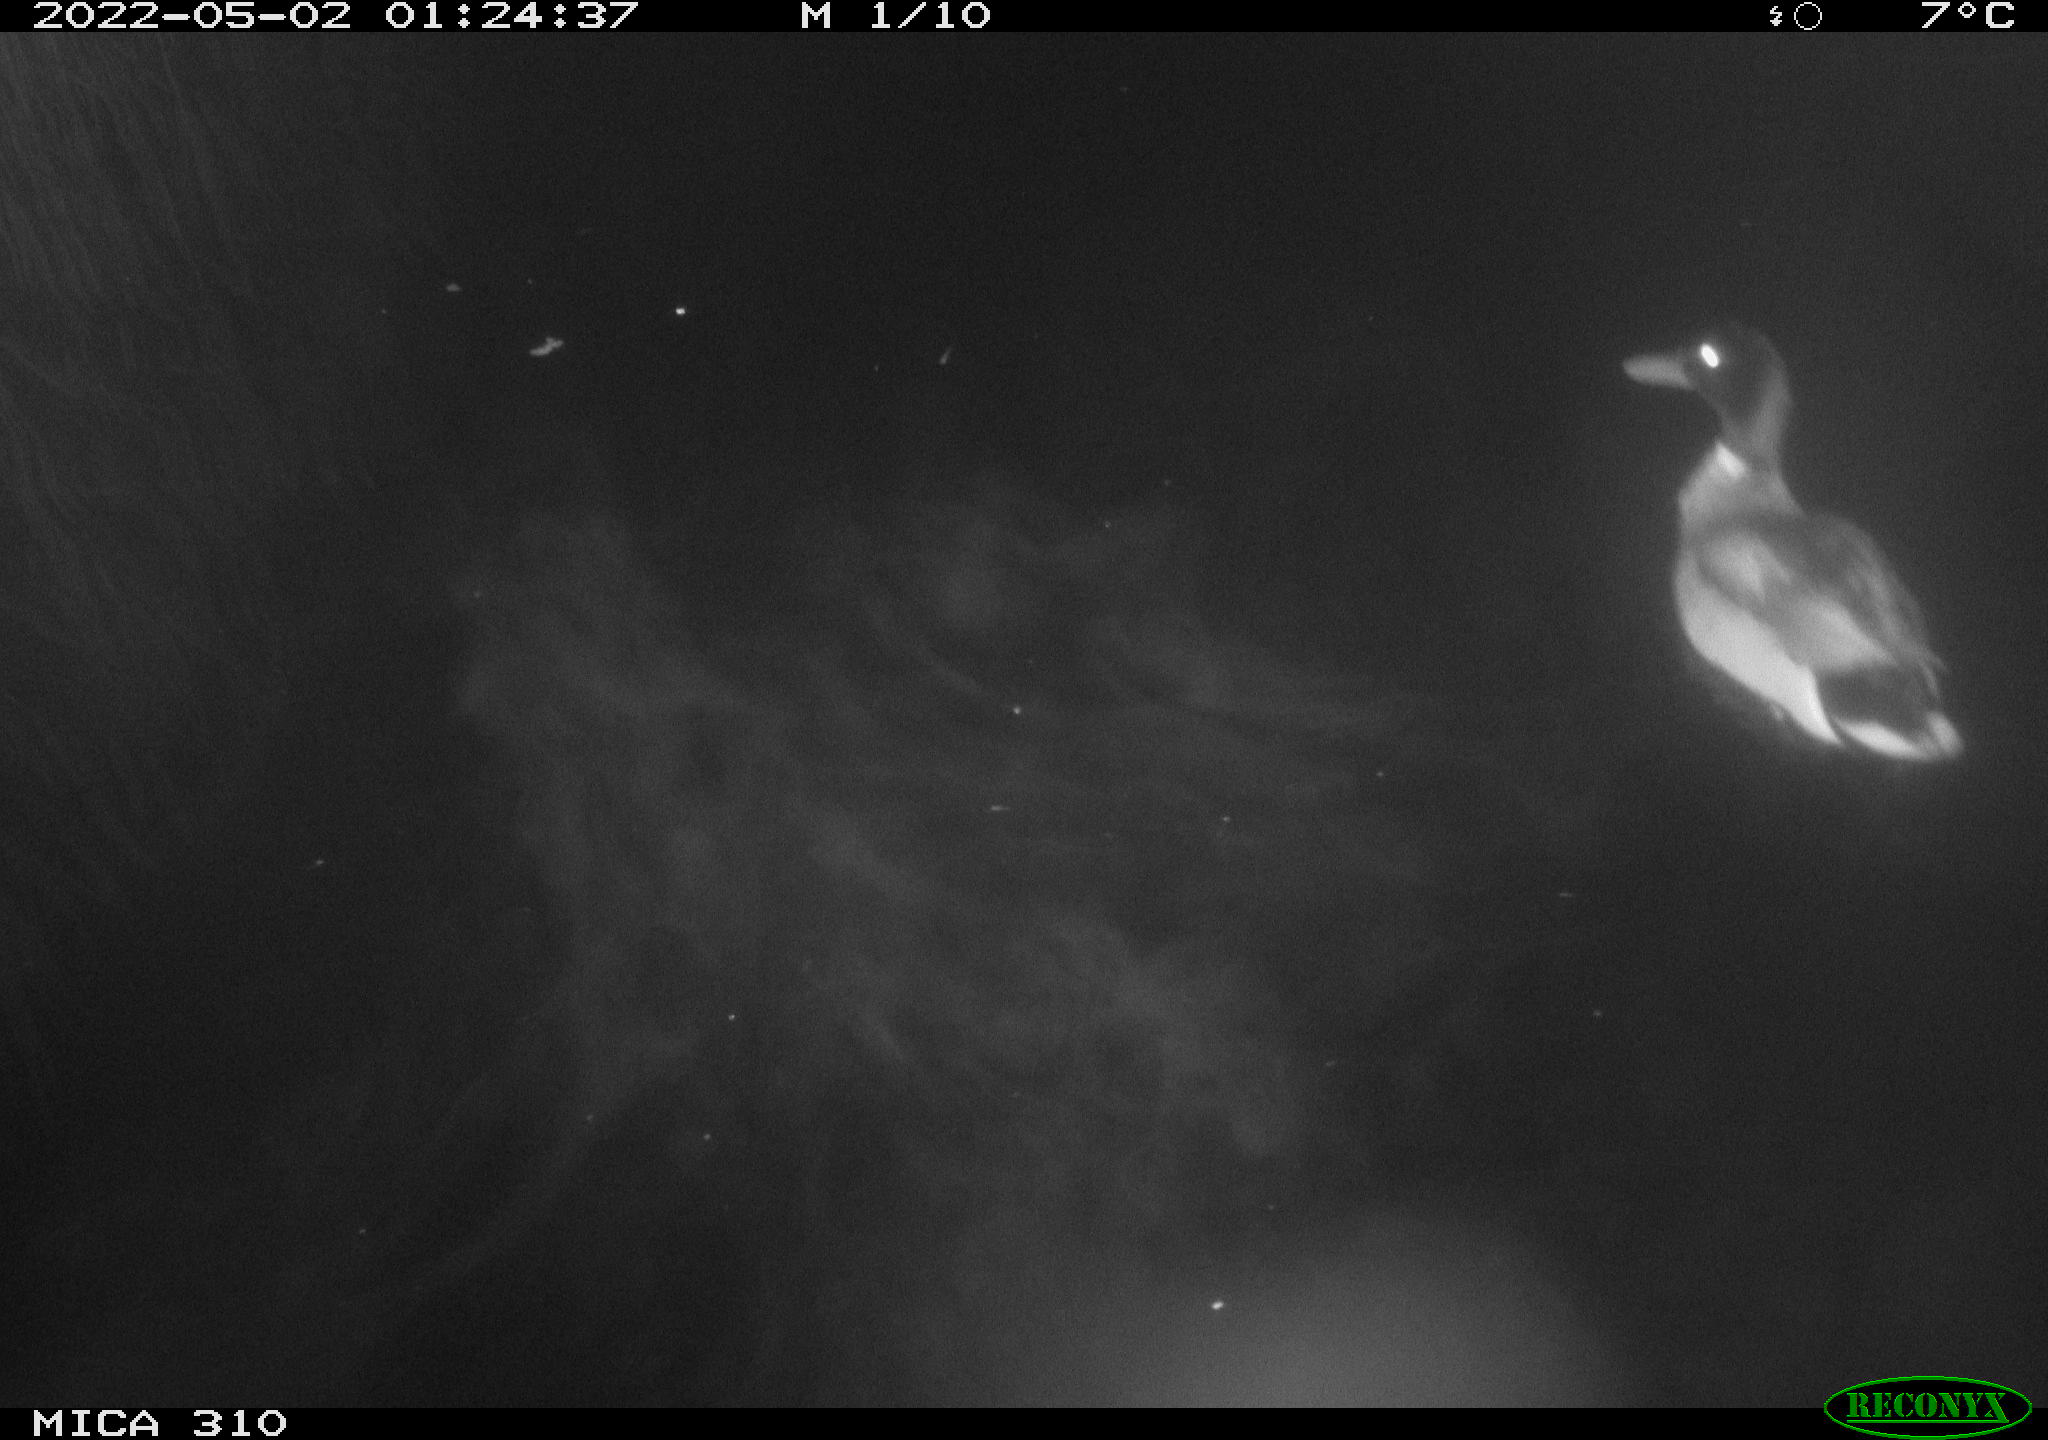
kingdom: Animalia
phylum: Chordata
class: Aves
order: Anseriformes
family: Anatidae
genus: Anas
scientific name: Anas platyrhynchos
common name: Mallard
